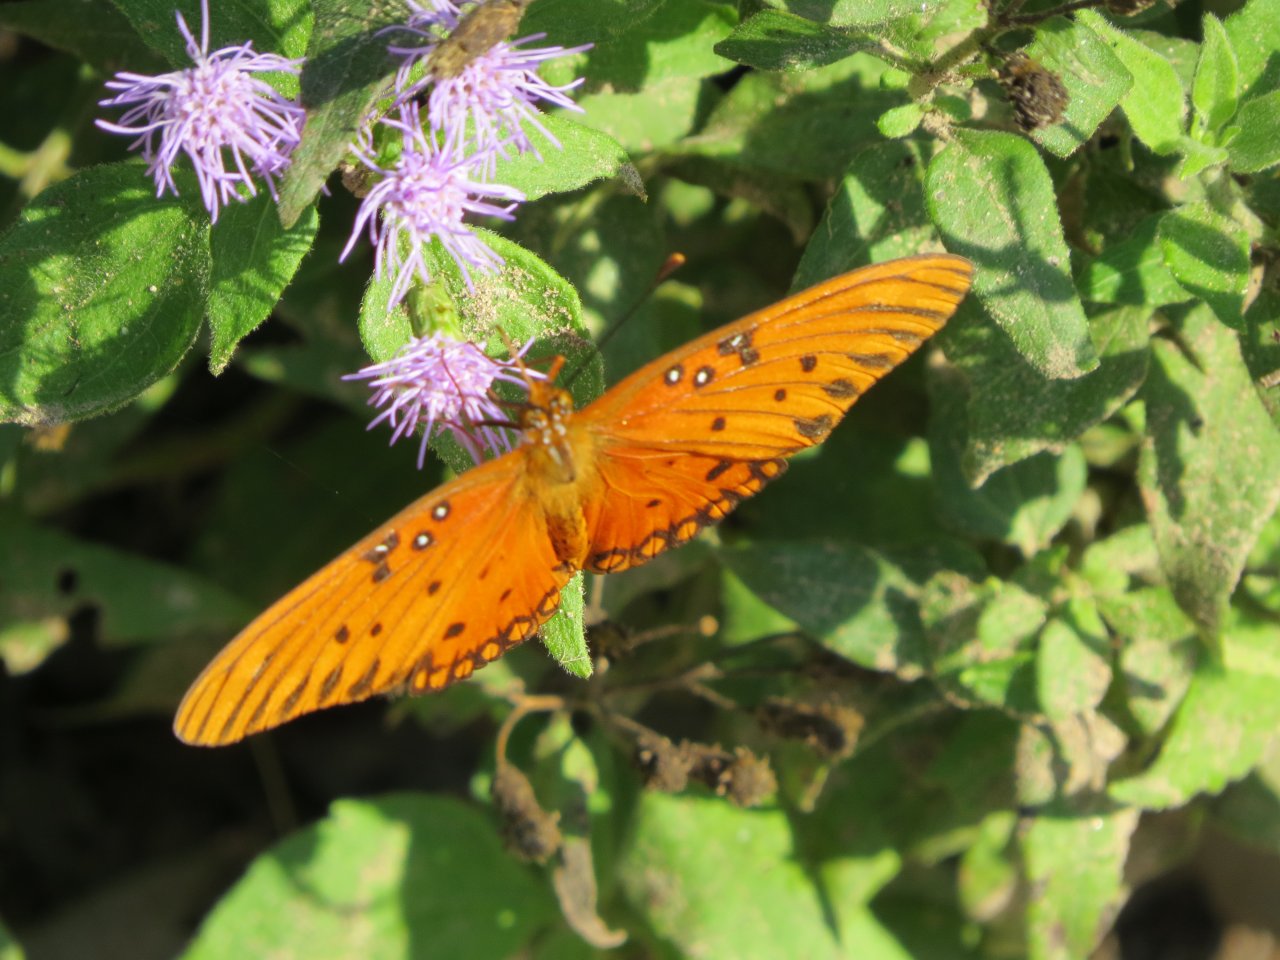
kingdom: Animalia
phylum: Arthropoda
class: Insecta
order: Lepidoptera
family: Nymphalidae
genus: Dione
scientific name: Dione vanillae
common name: Gulf Fritillary
